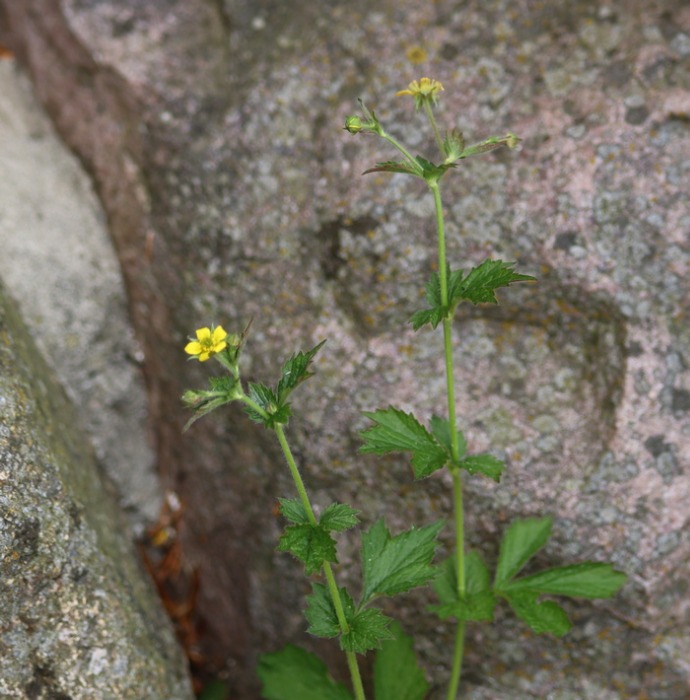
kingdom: Plantae
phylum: Tracheophyta
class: Magnoliopsida
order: Rosales
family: Rosaceae
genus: Geum
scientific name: Geum urbanum
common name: Feber-nellikerod
